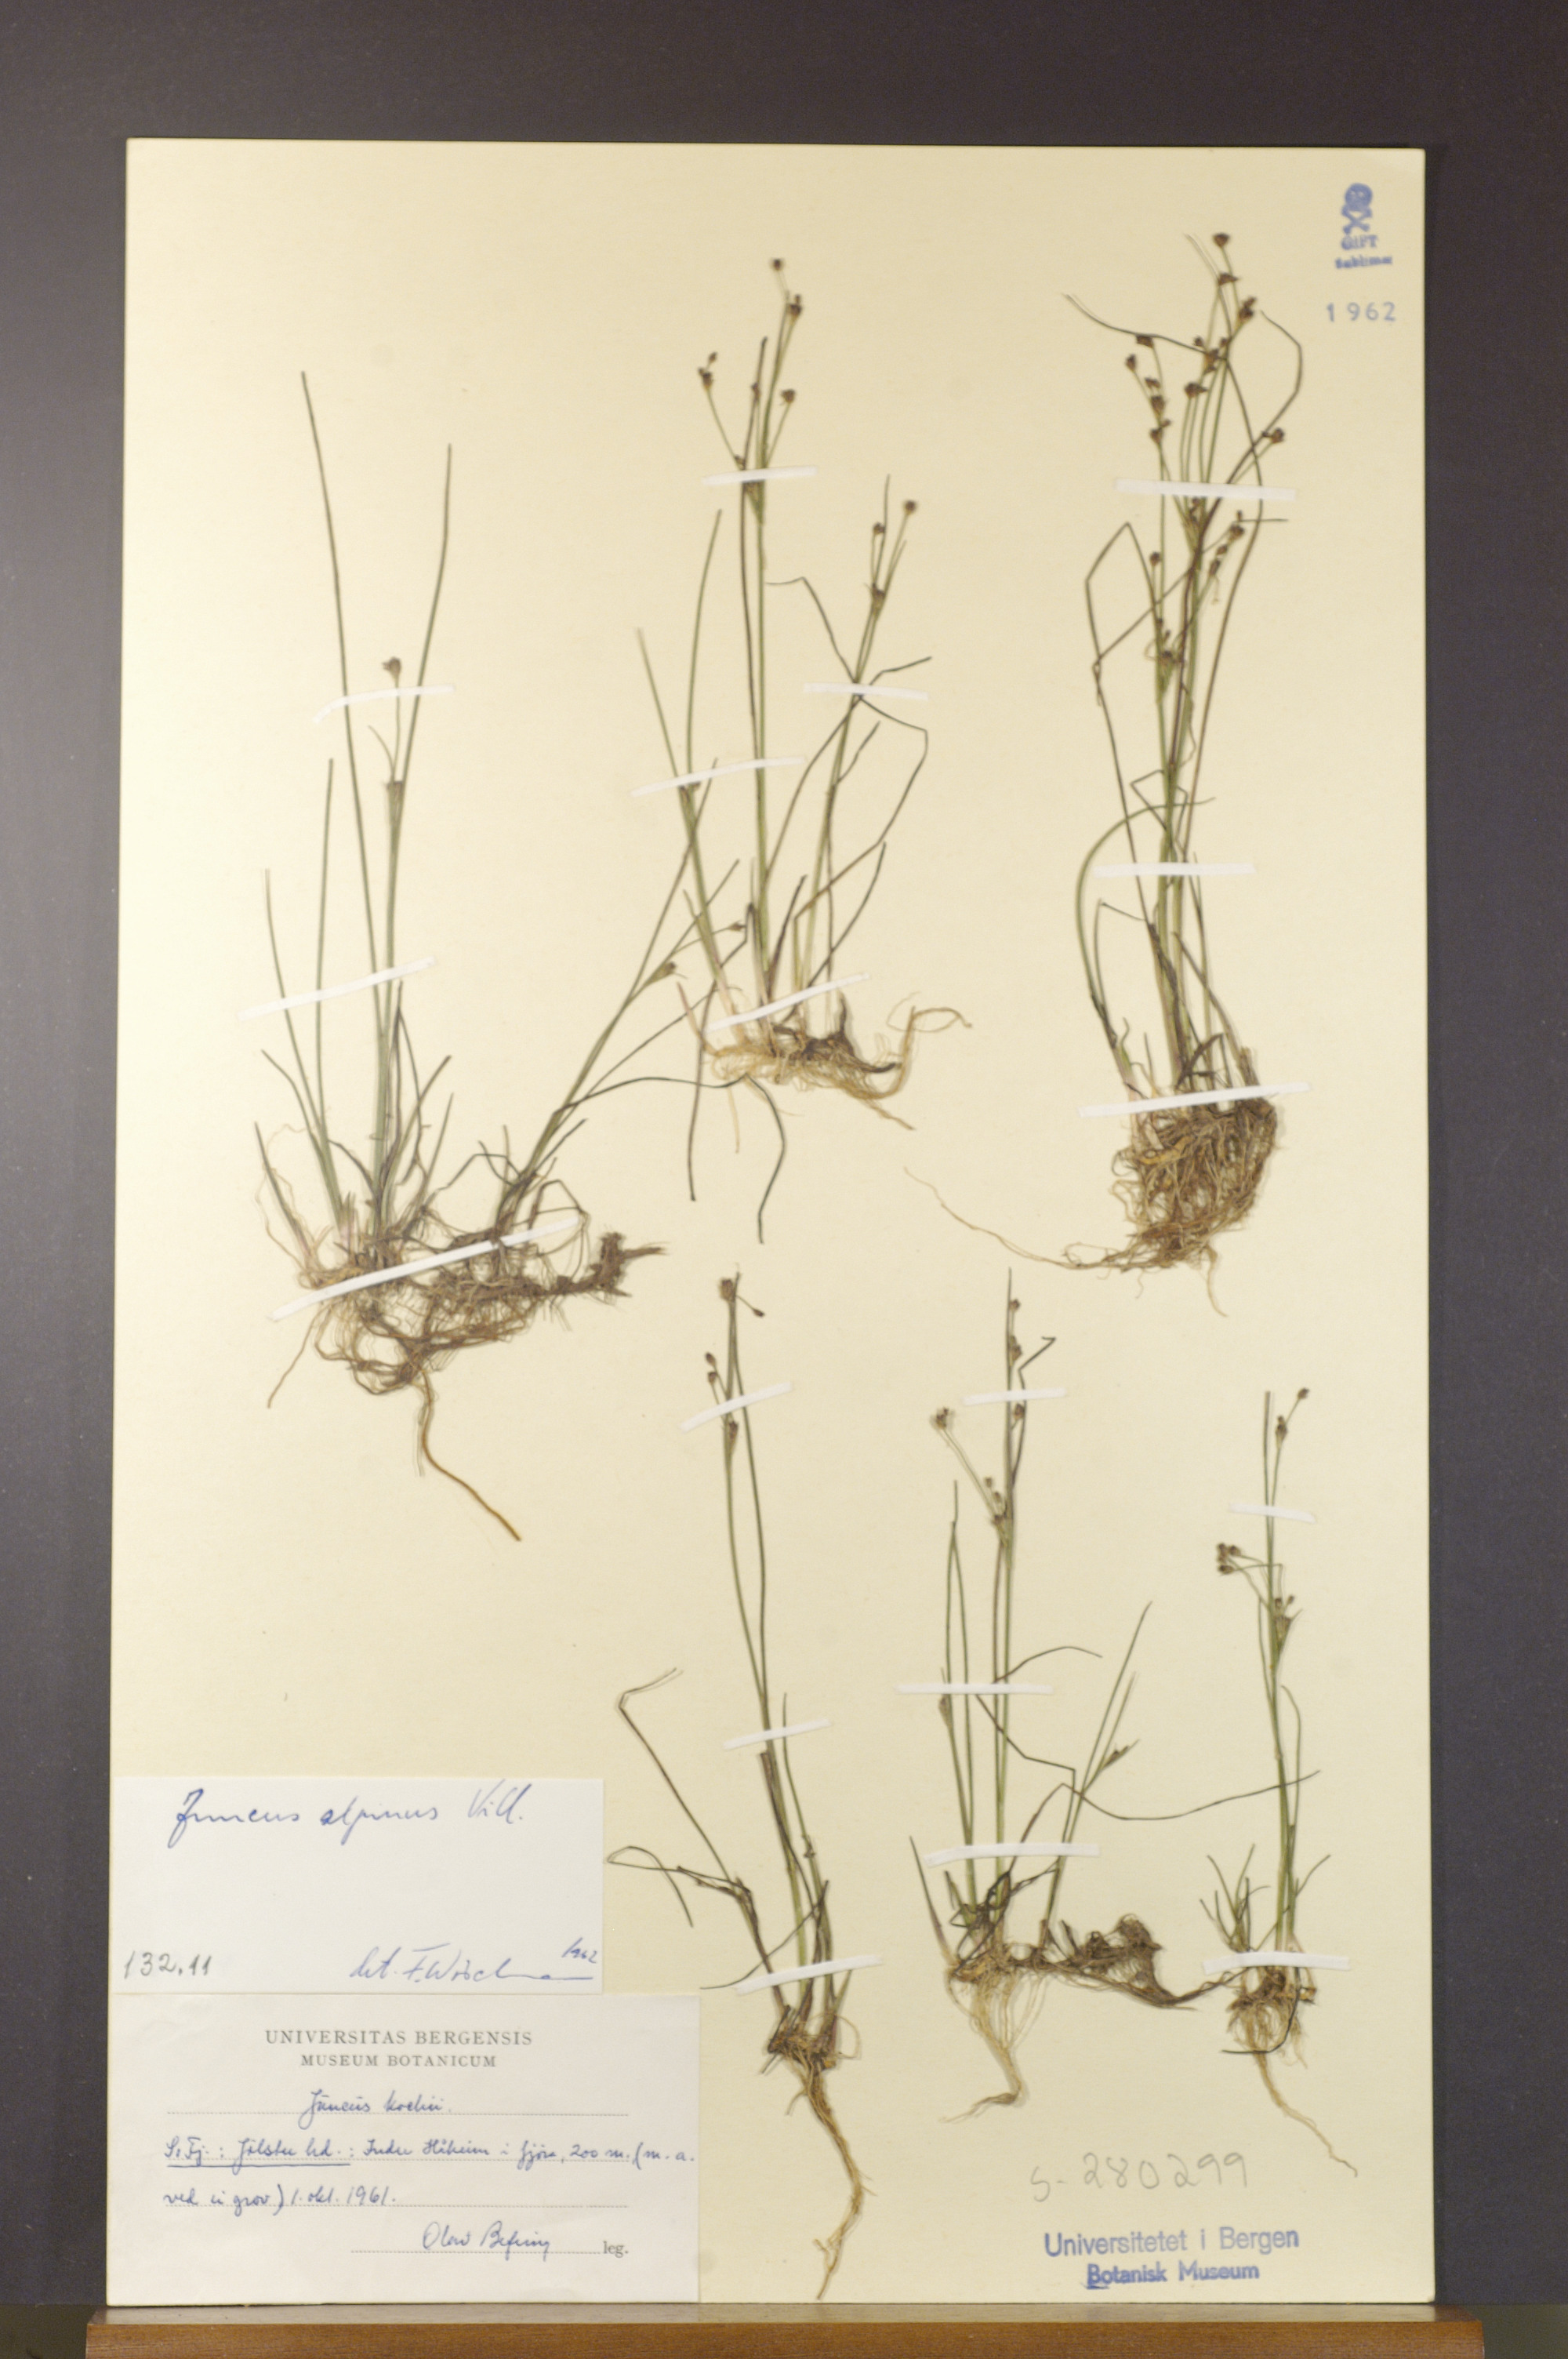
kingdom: Plantae
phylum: Tracheophyta
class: Liliopsida
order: Poales
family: Juncaceae
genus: Juncus
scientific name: Juncus alpinoarticulatus
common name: Alpine rush
